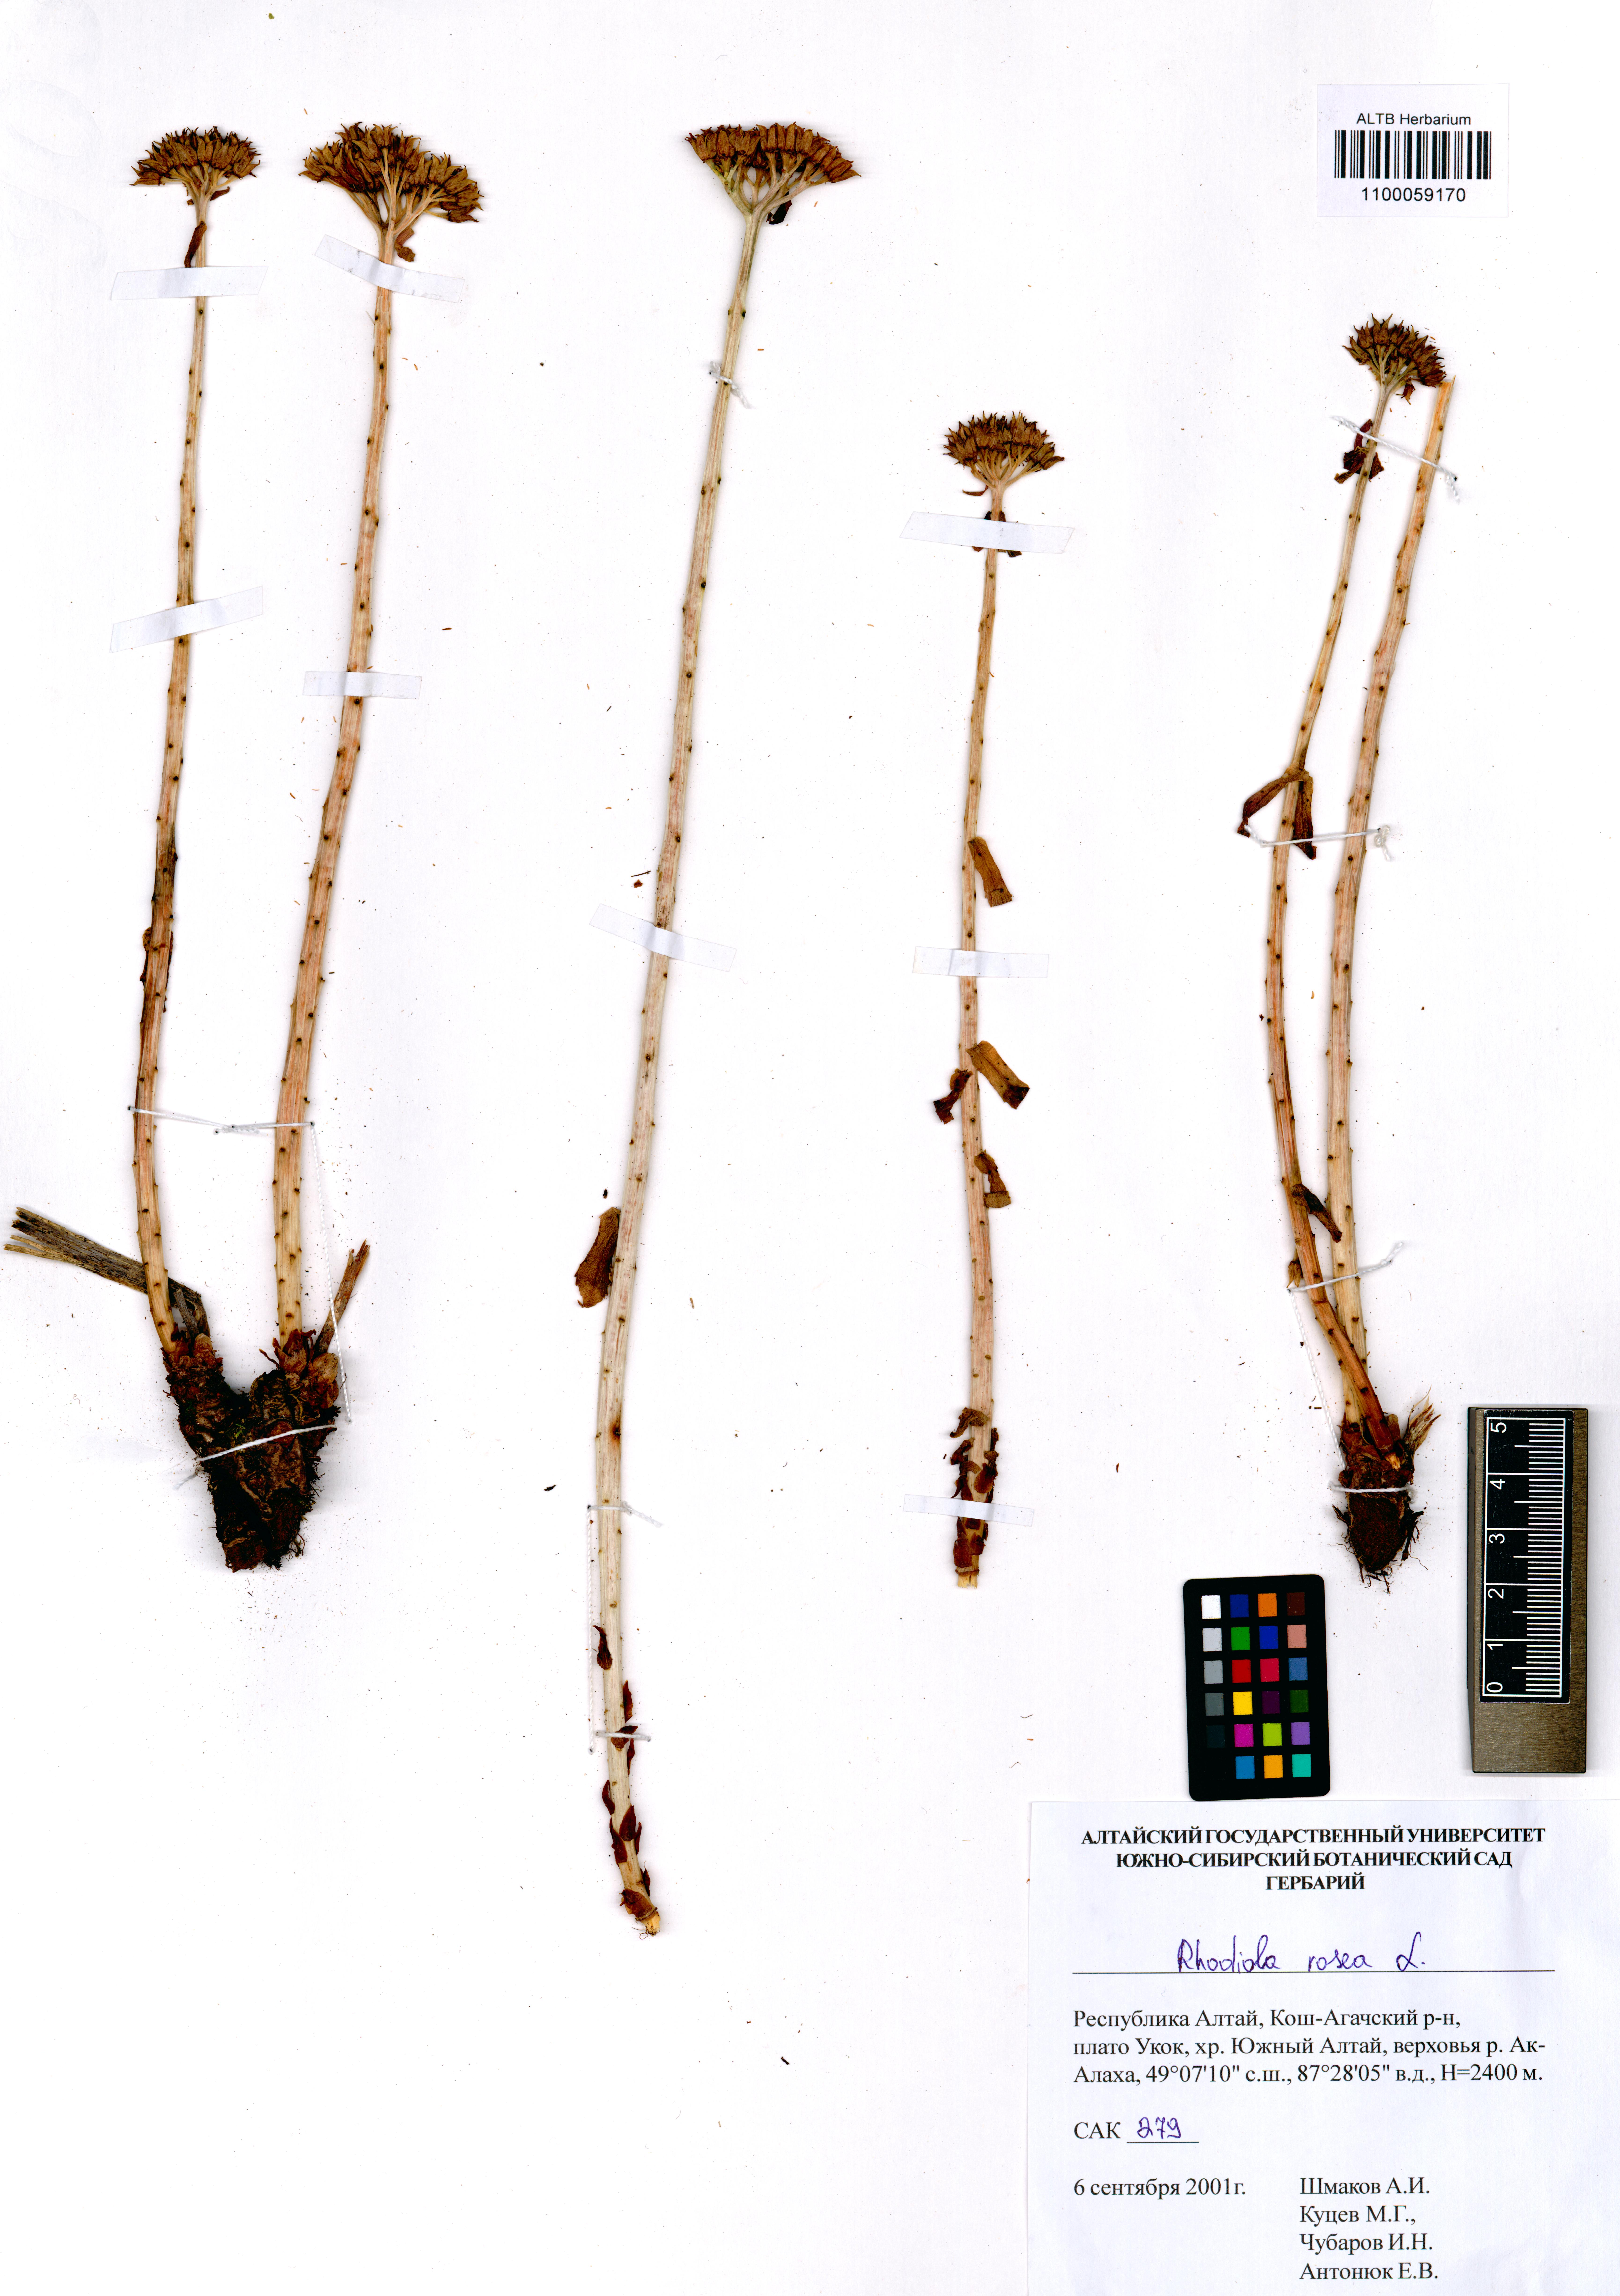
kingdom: Plantae
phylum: Tracheophyta
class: Magnoliopsida
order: Saxifragales
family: Crassulaceae
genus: Rhodiola
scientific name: Rhodiola rosea
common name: Roseroot
